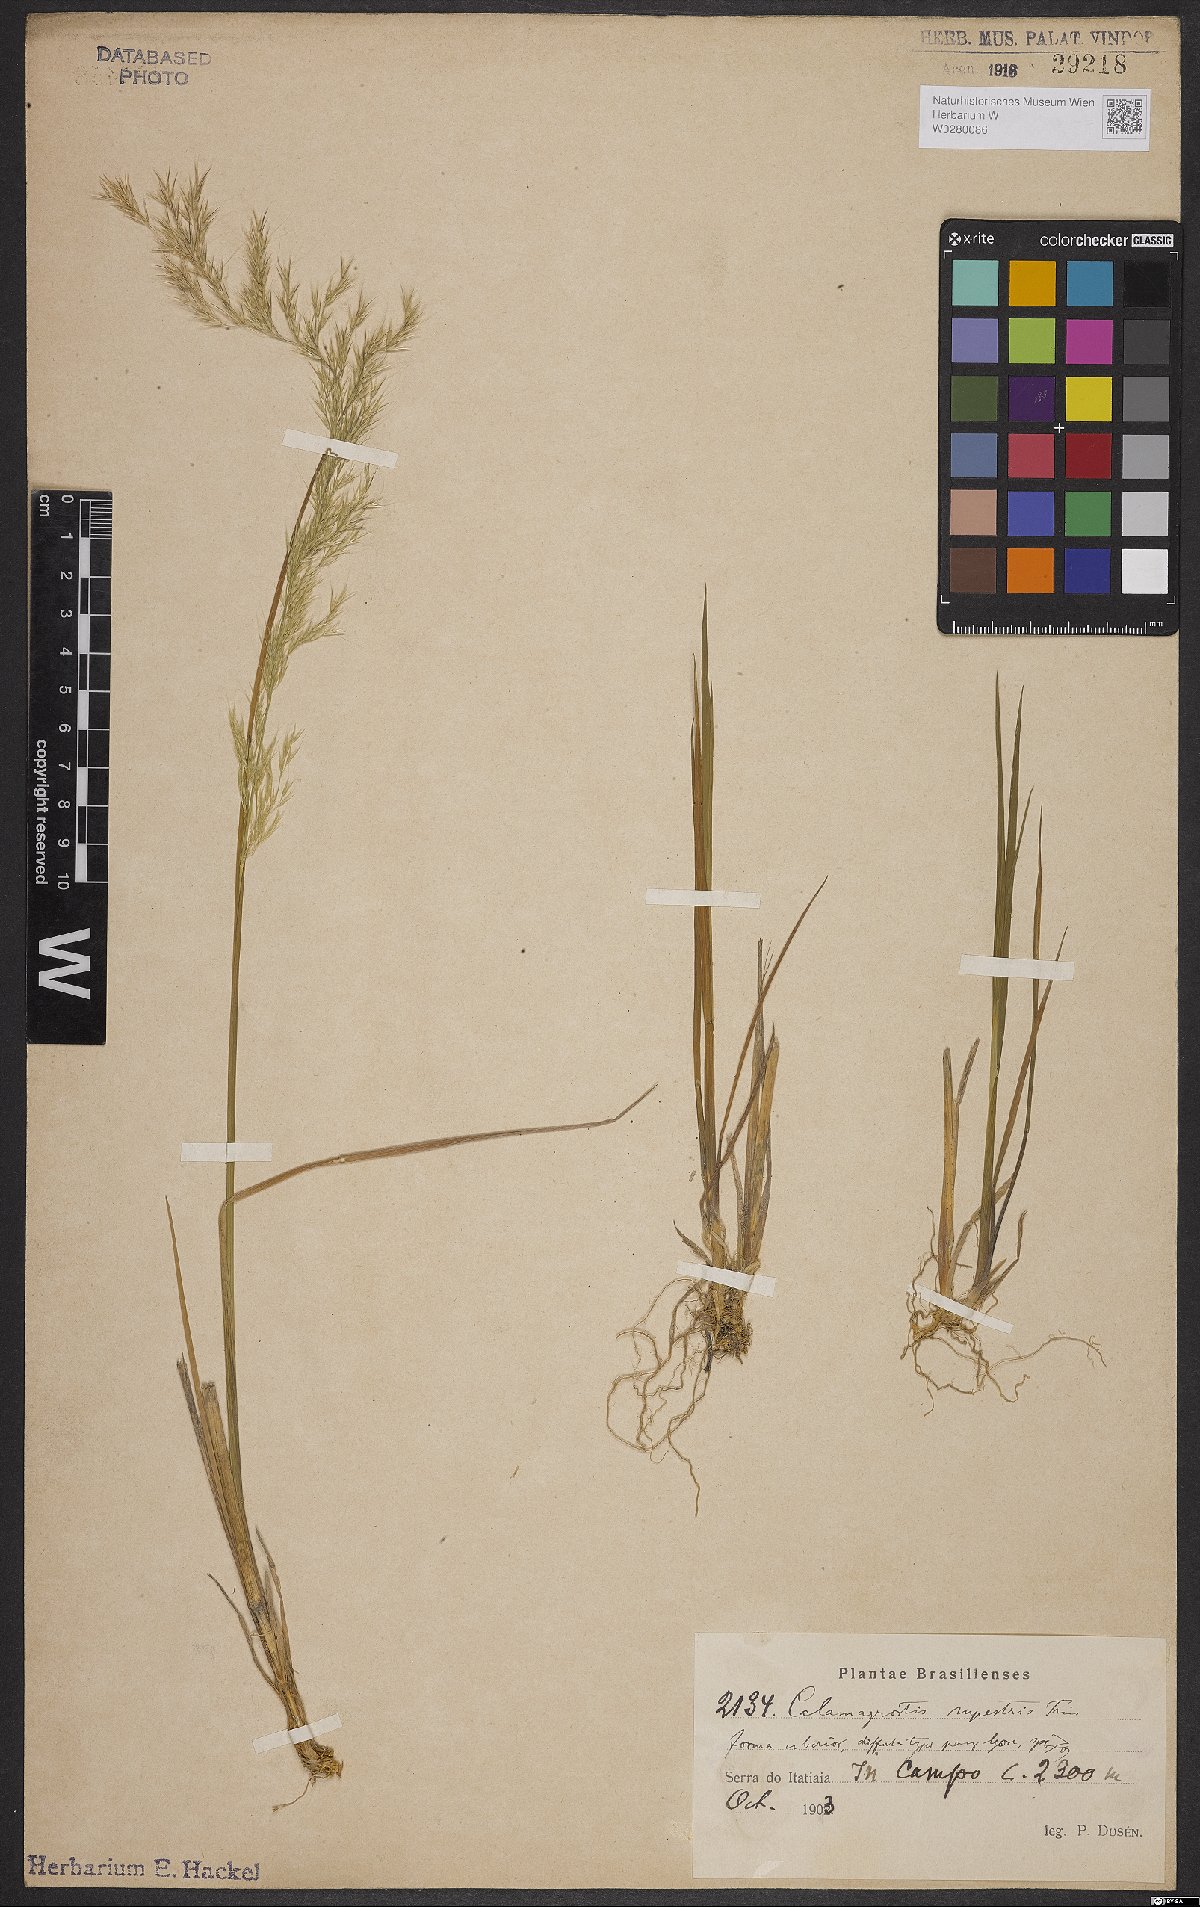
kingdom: Plantae
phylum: Tracheophyta
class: Liliopsida
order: Poales
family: Poaceae
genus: Cinnagrostis
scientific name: Cinnagrostis rupestris
